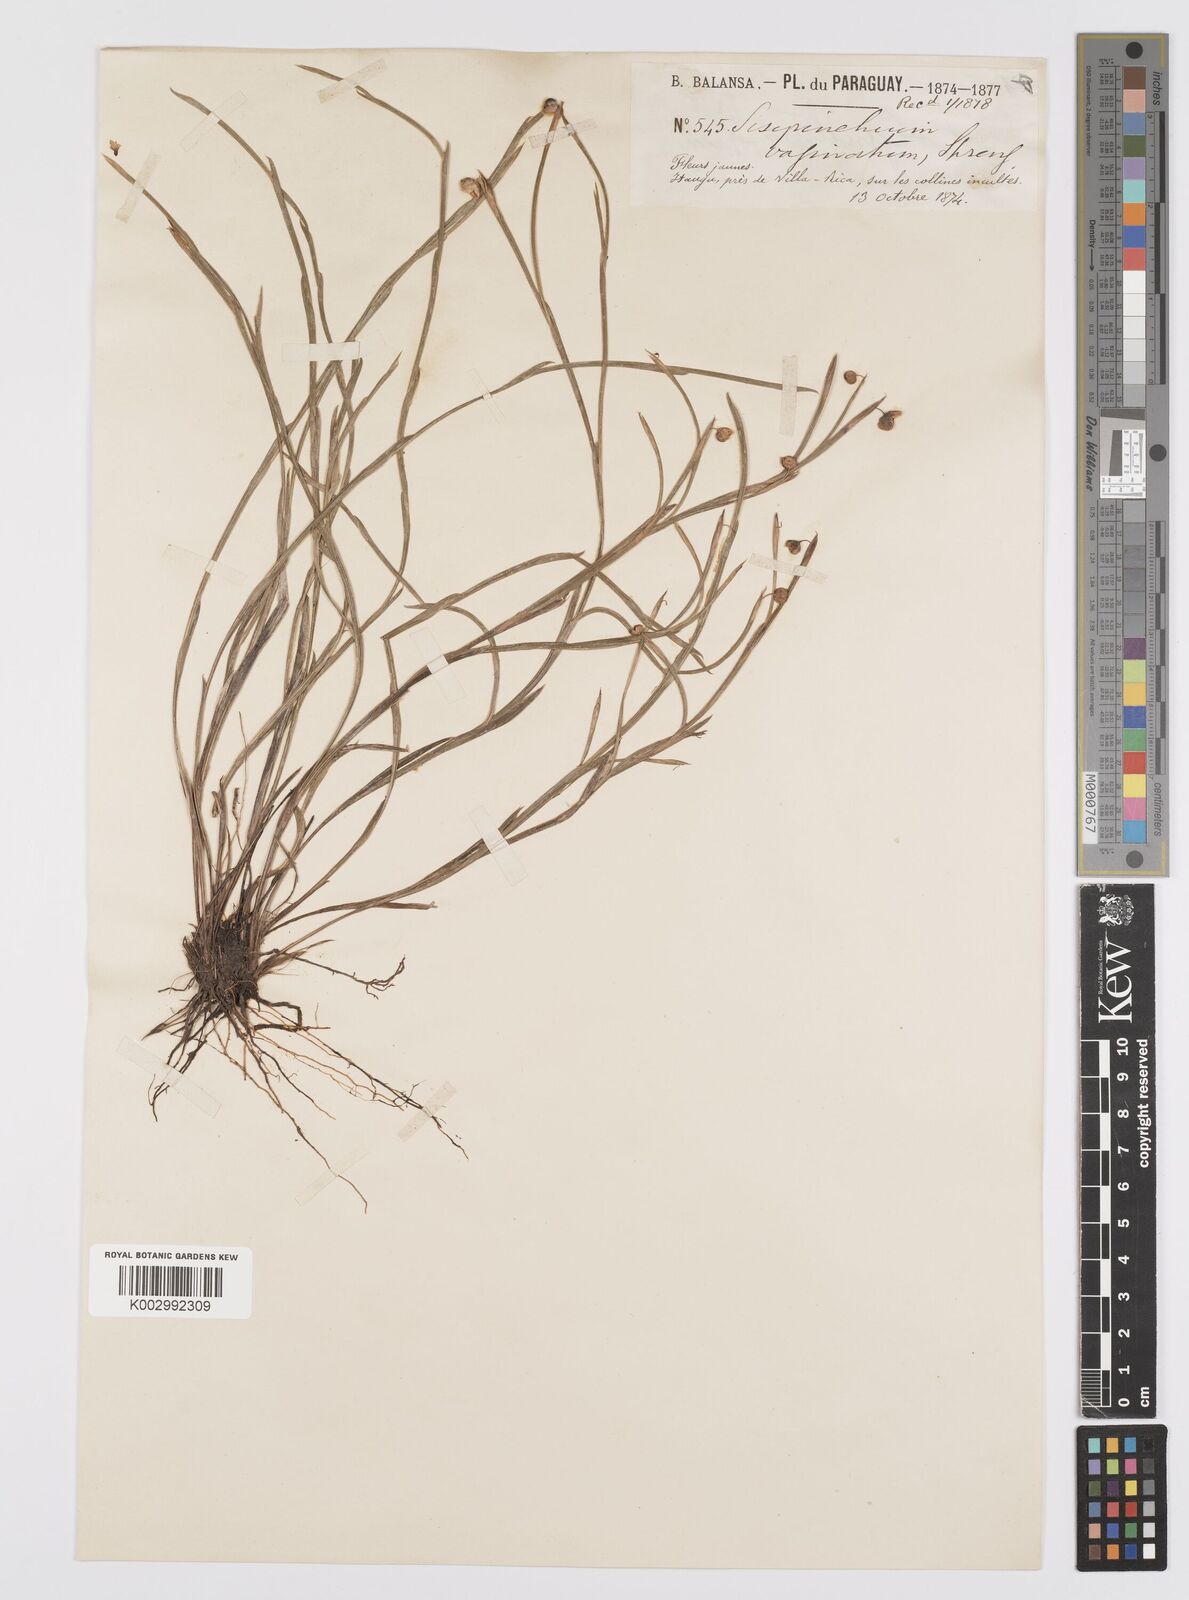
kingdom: Plantae
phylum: Tracheophyta
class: Liliopsida
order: Asparagales
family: Iridaceae
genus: Sisyrinchium
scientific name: Sisyrinchium vaginatum
